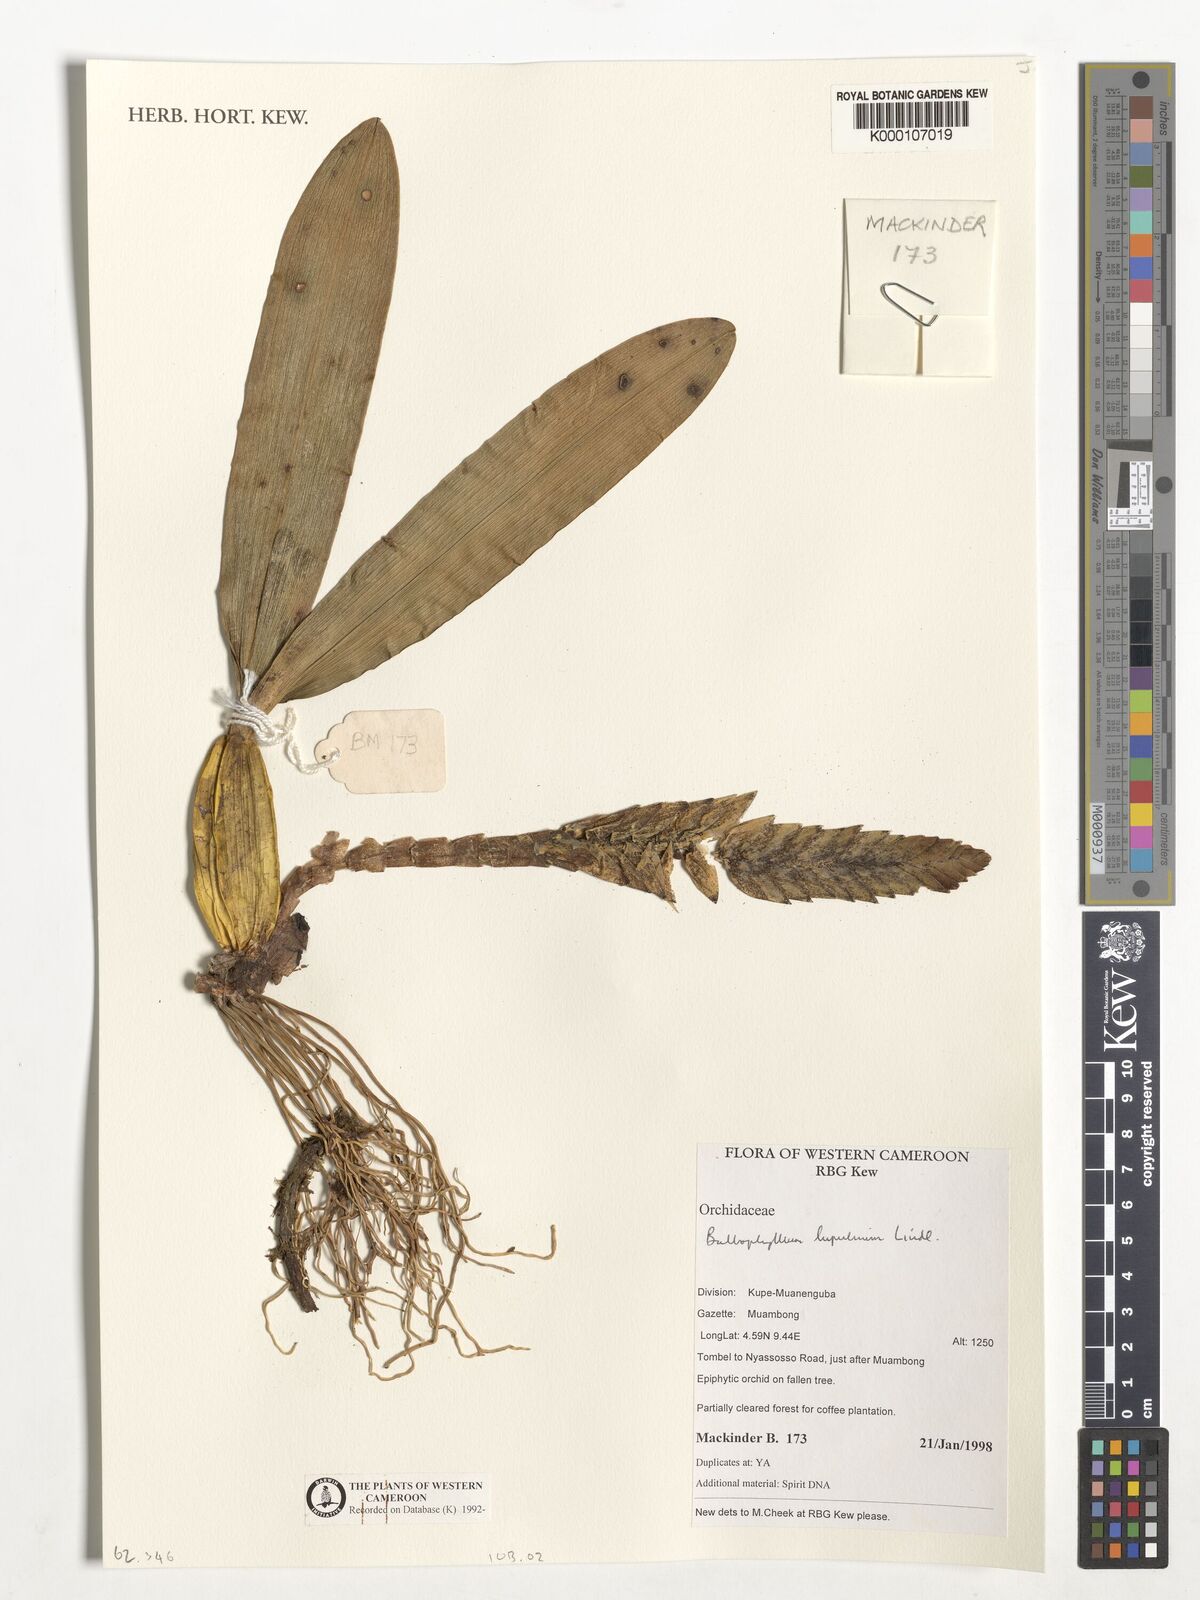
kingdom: Plantae
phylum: Tracheophyta
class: Liliopsida
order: Asparagales
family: Orchidaceae
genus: Bulbophyllum
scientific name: Bulbophyllum lupulinum
